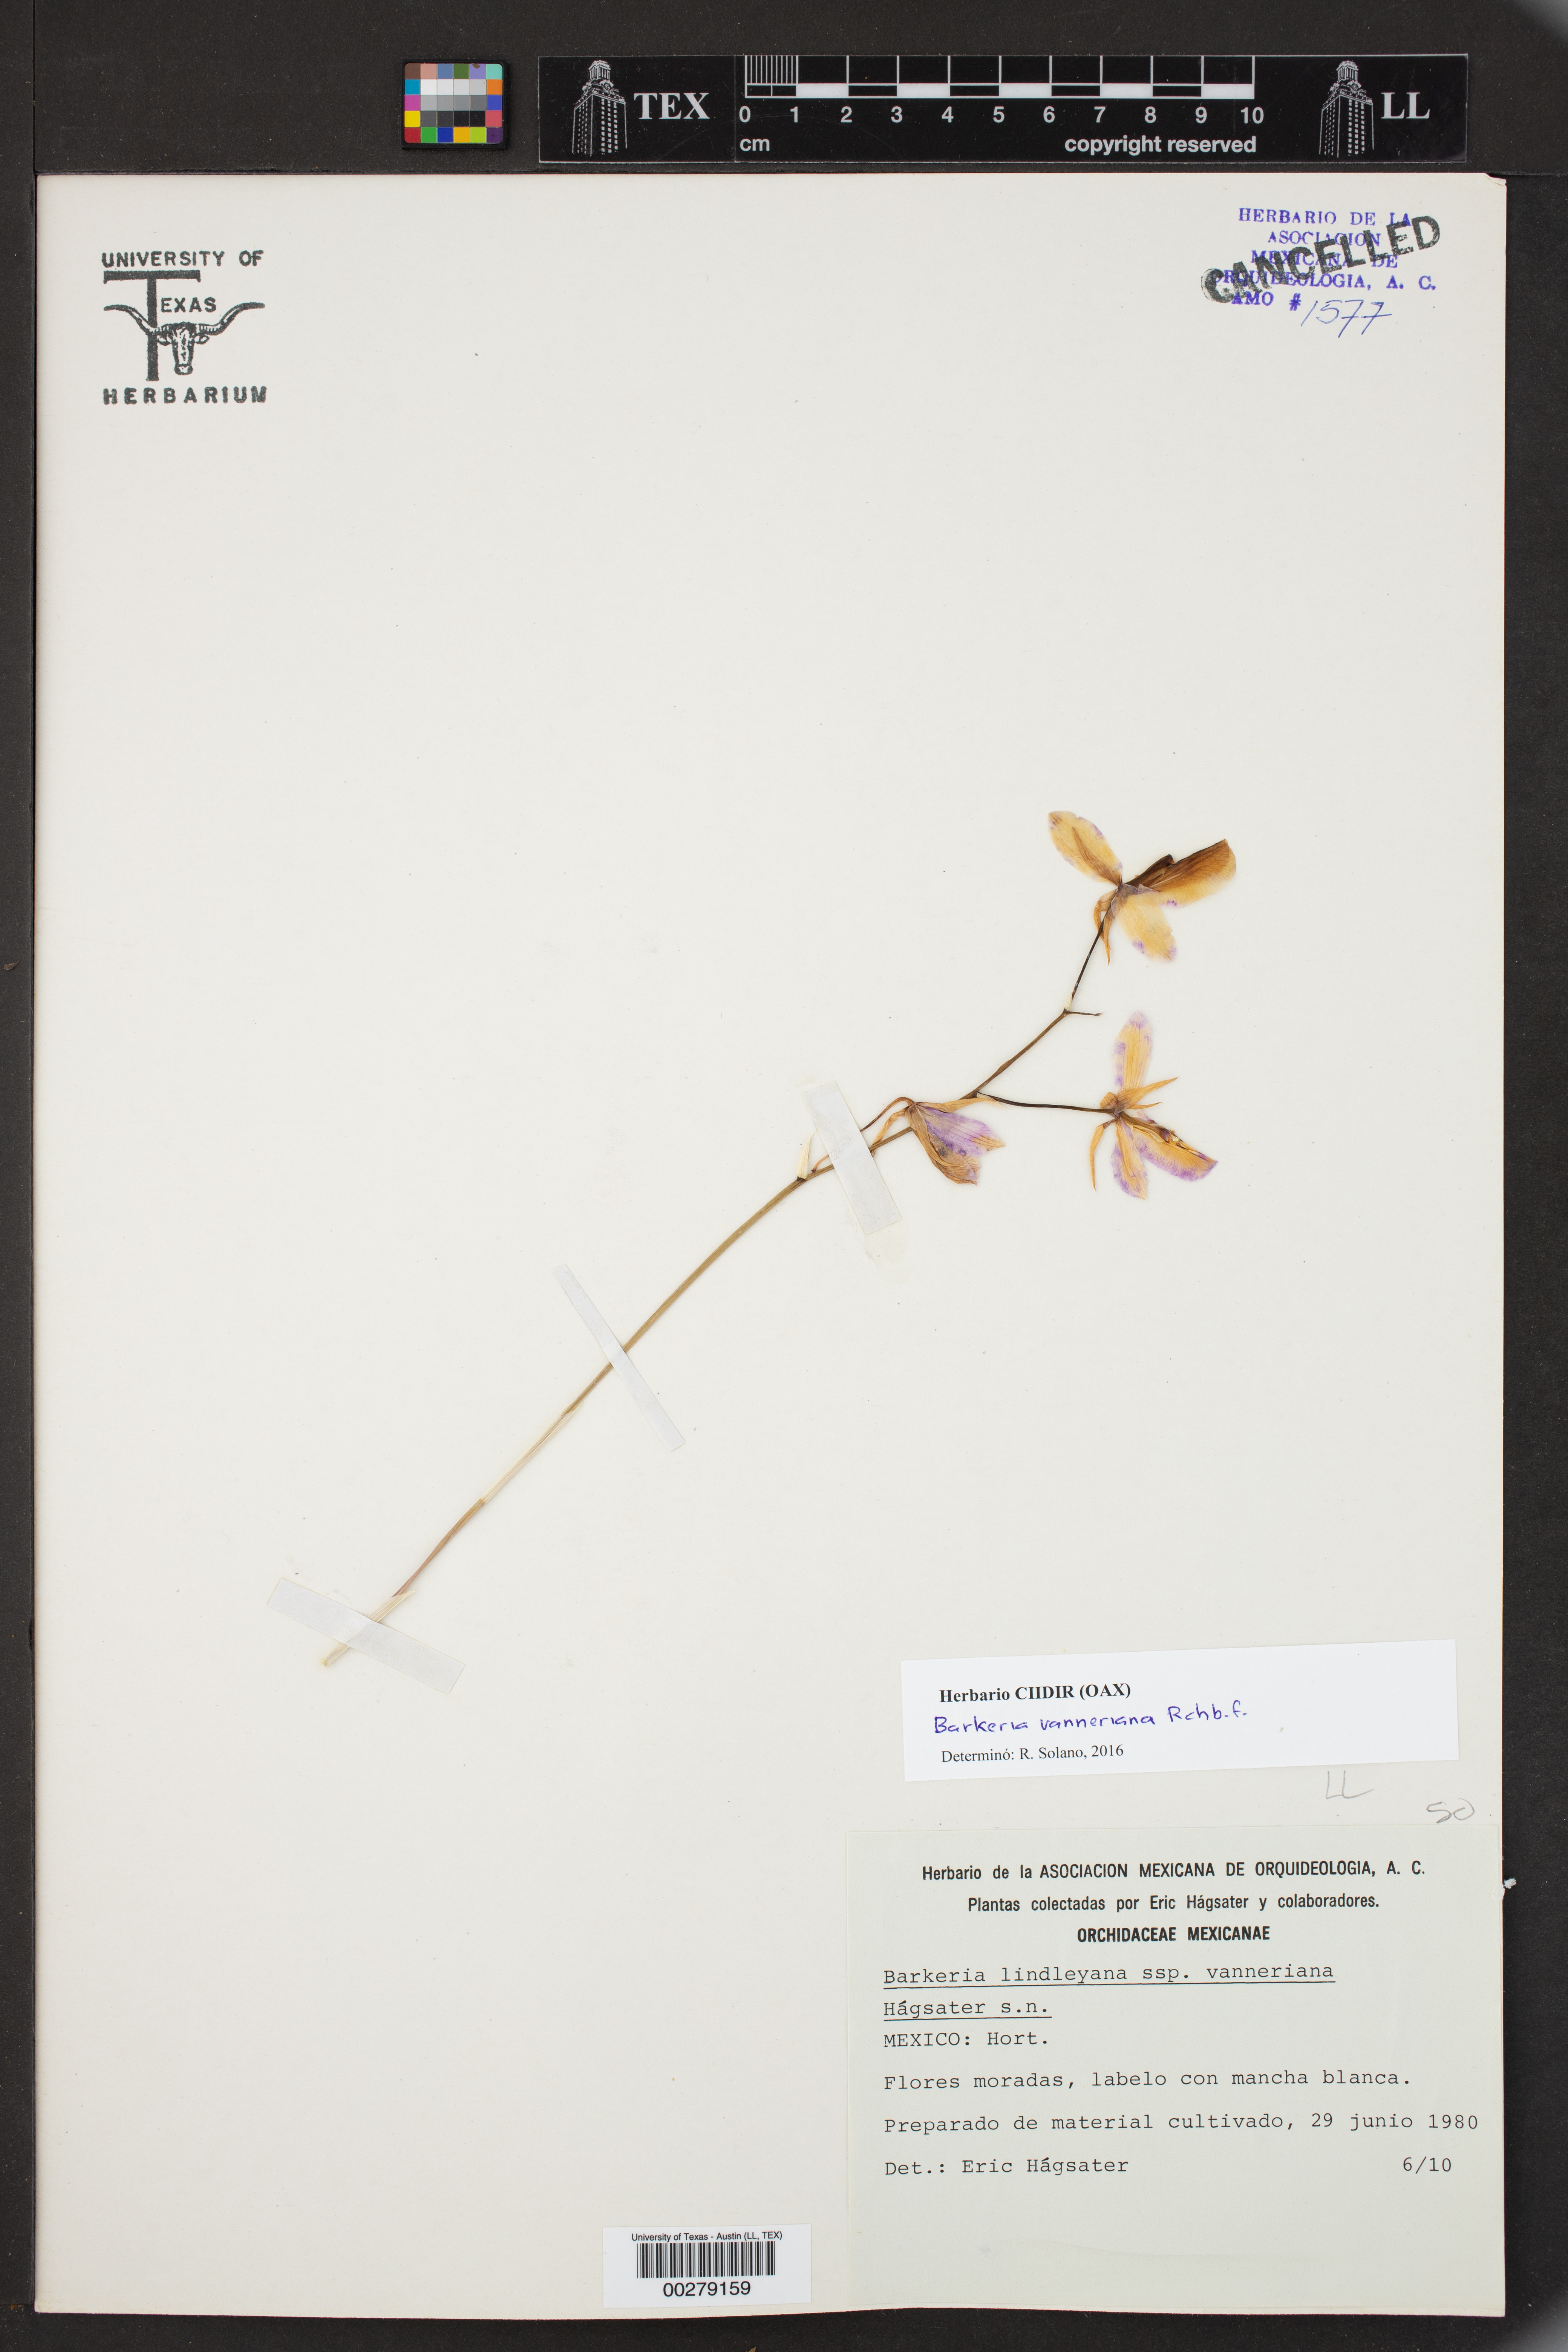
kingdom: Plantae
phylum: Tracheophyta
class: Liliopsida
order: Asparagales
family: Orchidaceae
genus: Barkeria
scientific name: Barkeria vanneriana
